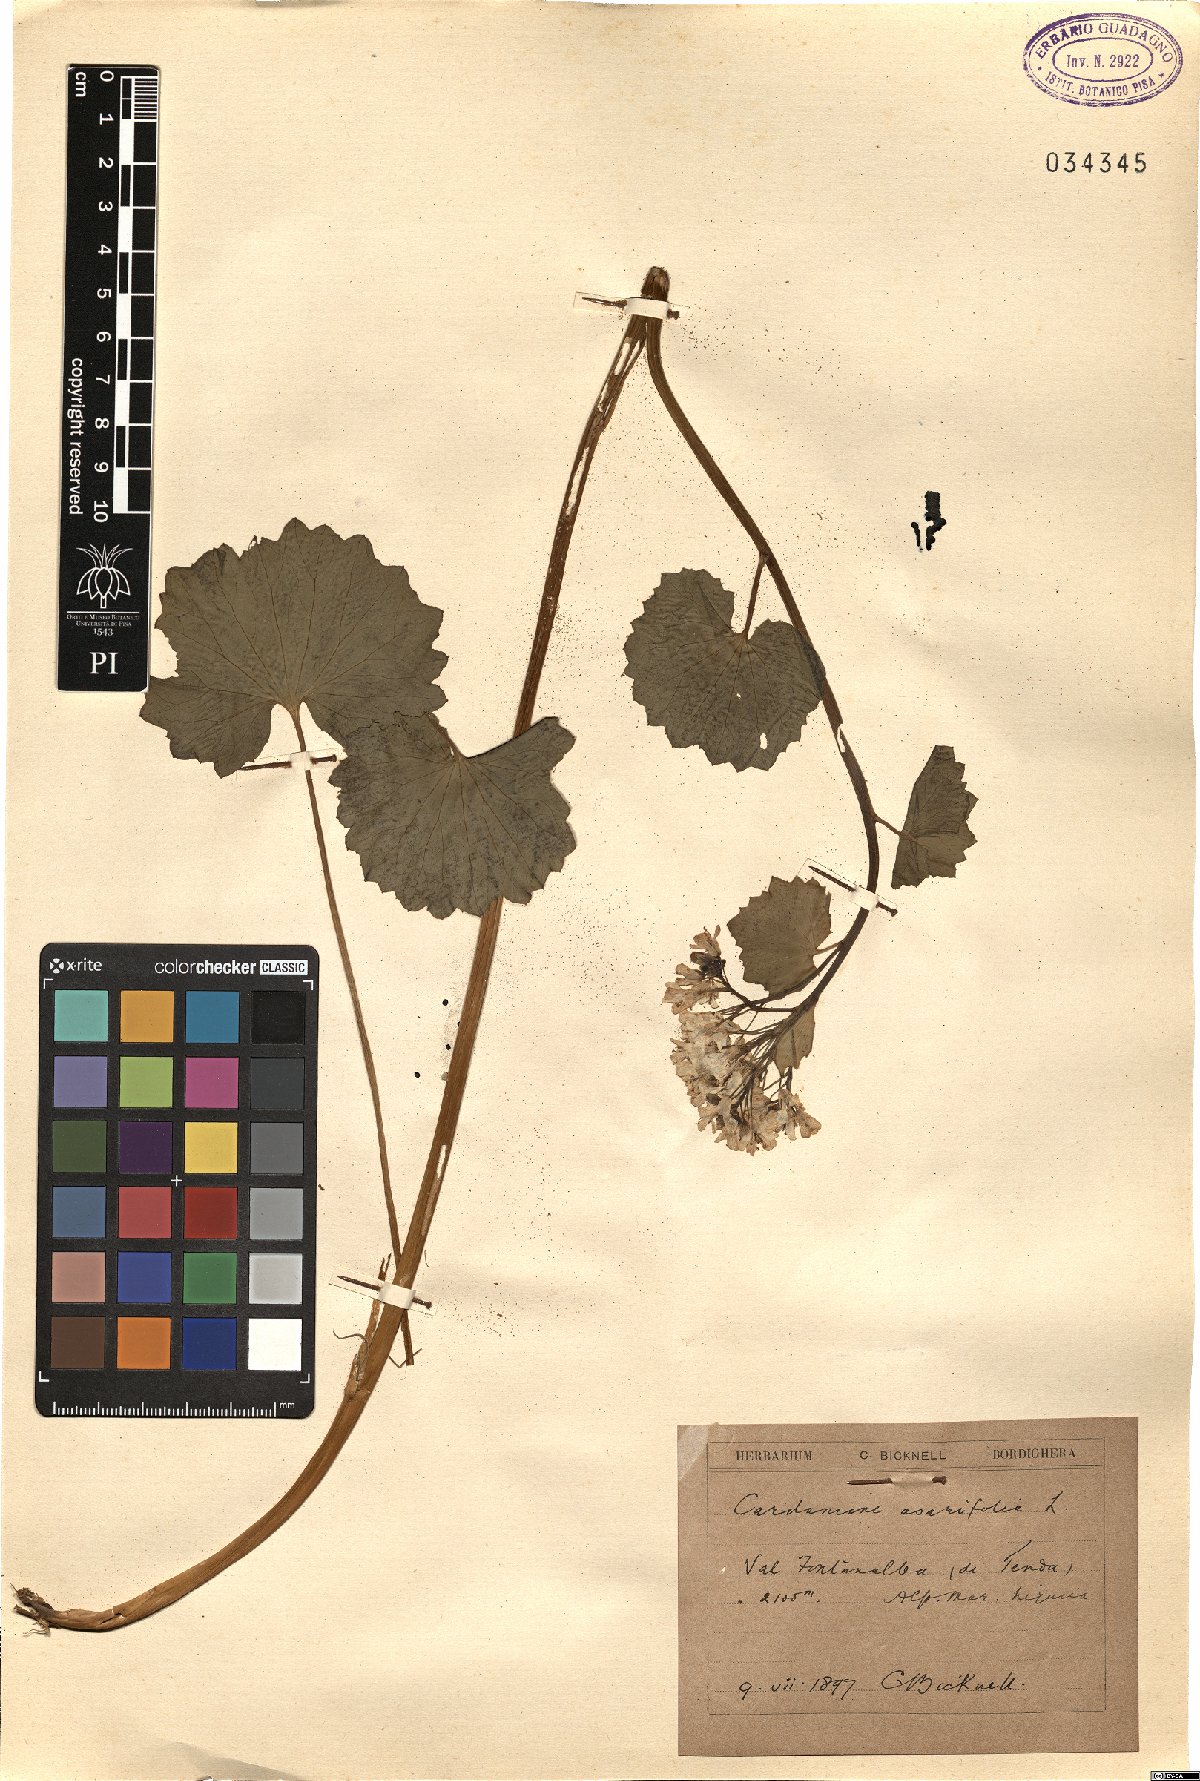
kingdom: Plantae
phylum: Tracheophyta
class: Magnoliopsida
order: Brassicales
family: Brassicaceae
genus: Cardamine
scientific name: Cardamine asarifolia
